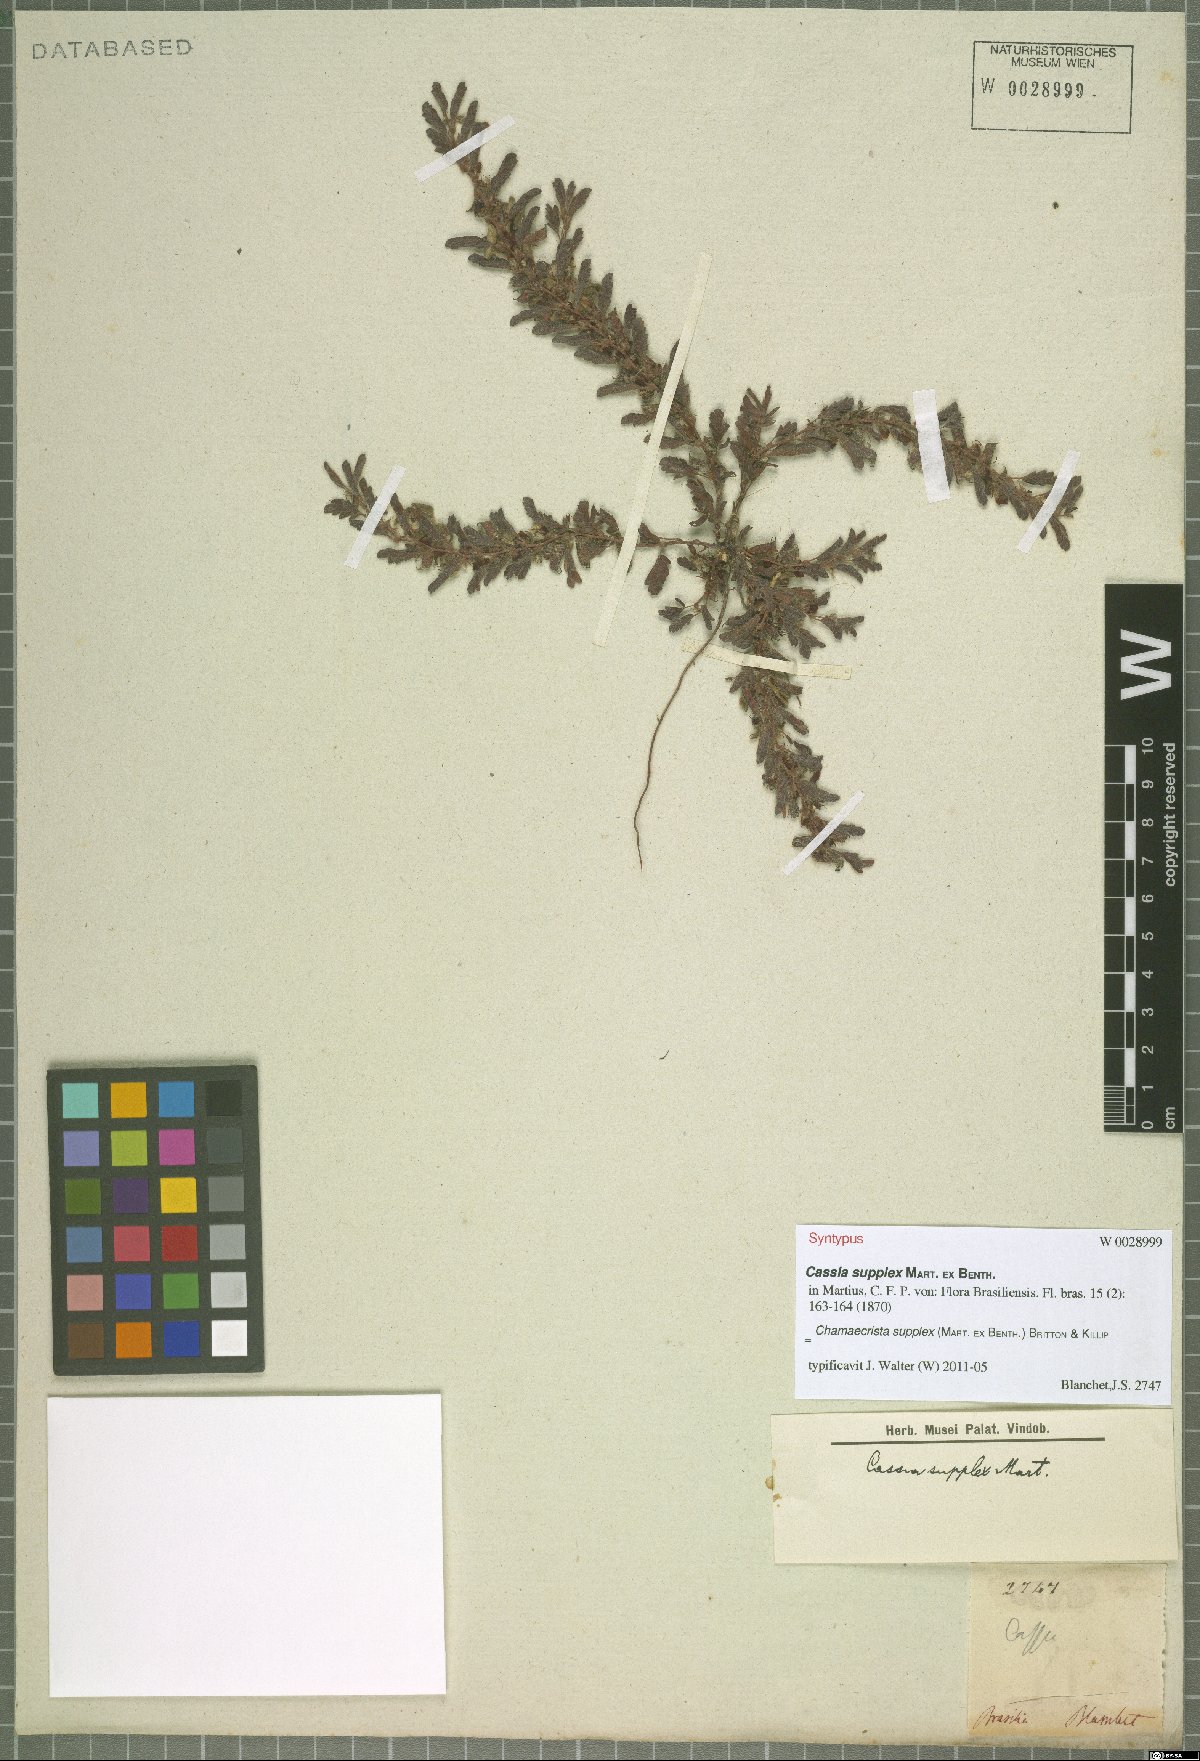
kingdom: Plantae
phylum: Tracheophyta
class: Magnoliopsida
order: Fabales
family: Fabaceae
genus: Chamaecrista
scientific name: Chamaecrista supplex
